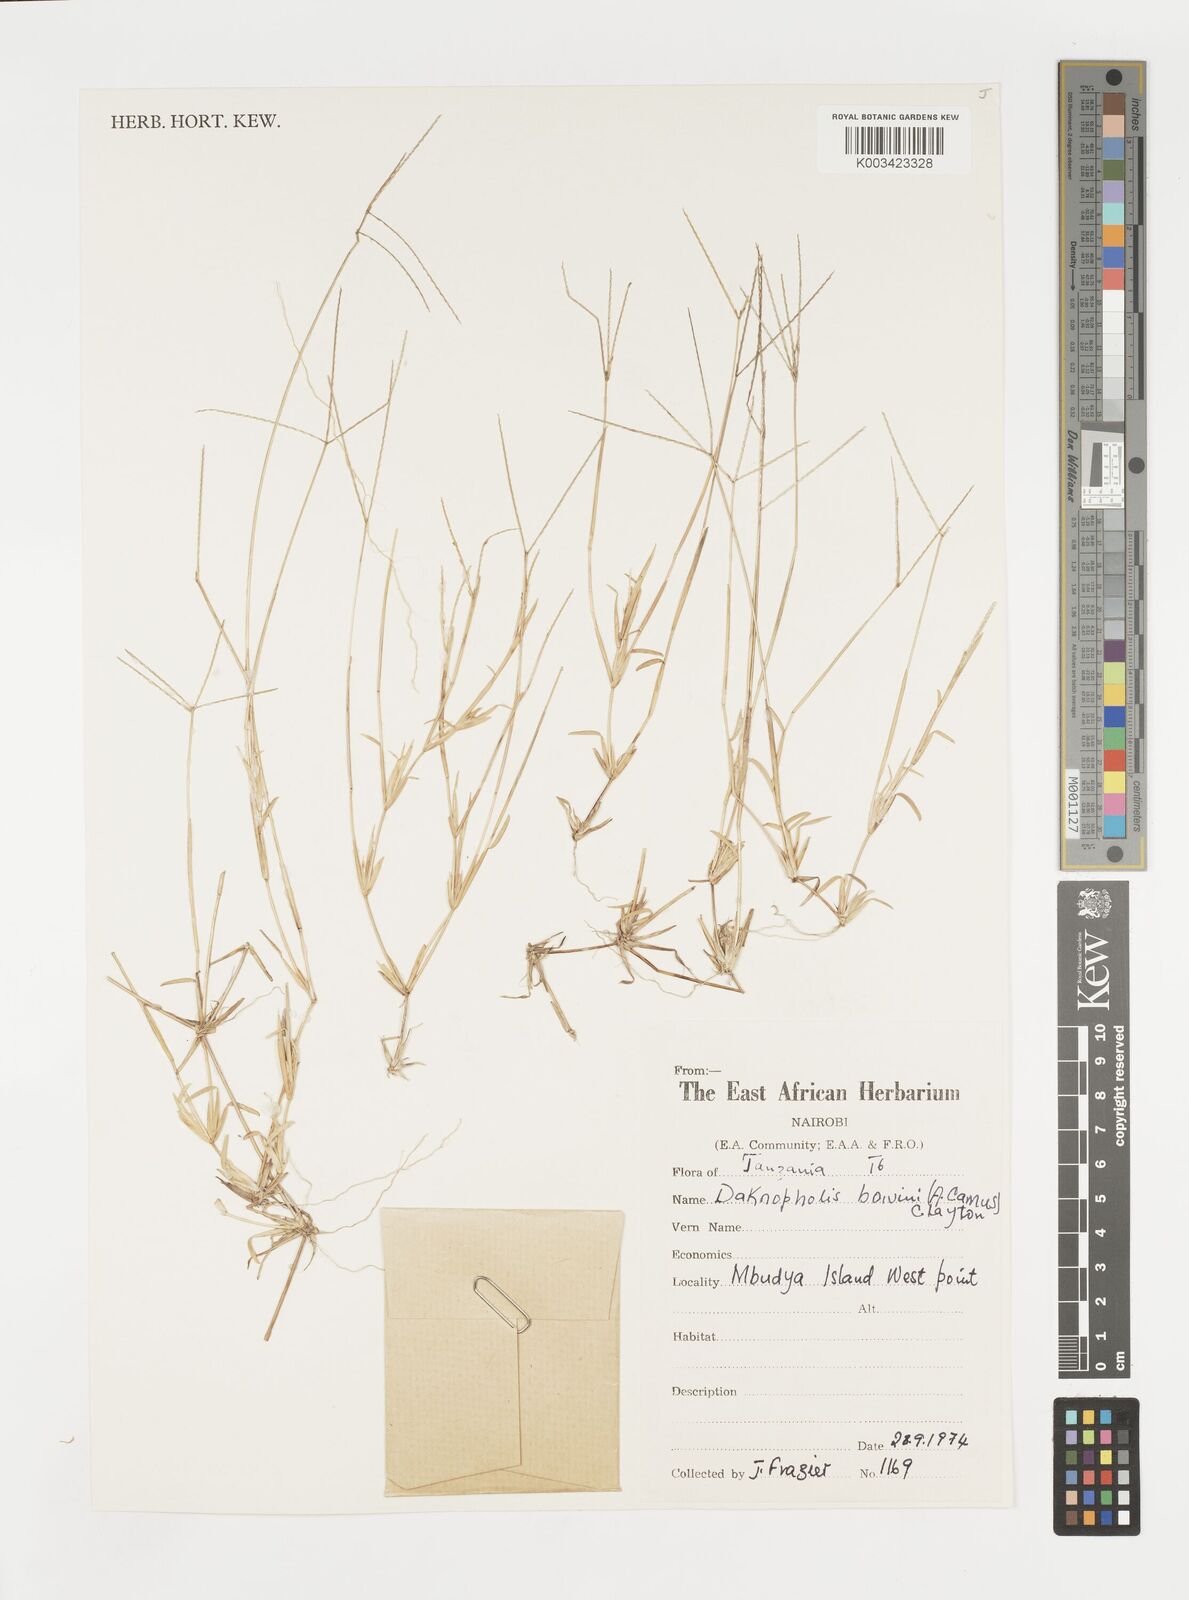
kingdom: Plantae
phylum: Tracheophyta
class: Liliopsida
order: Poales
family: Poaceae
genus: Daknopholis
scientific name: Daknopholis boivinii
